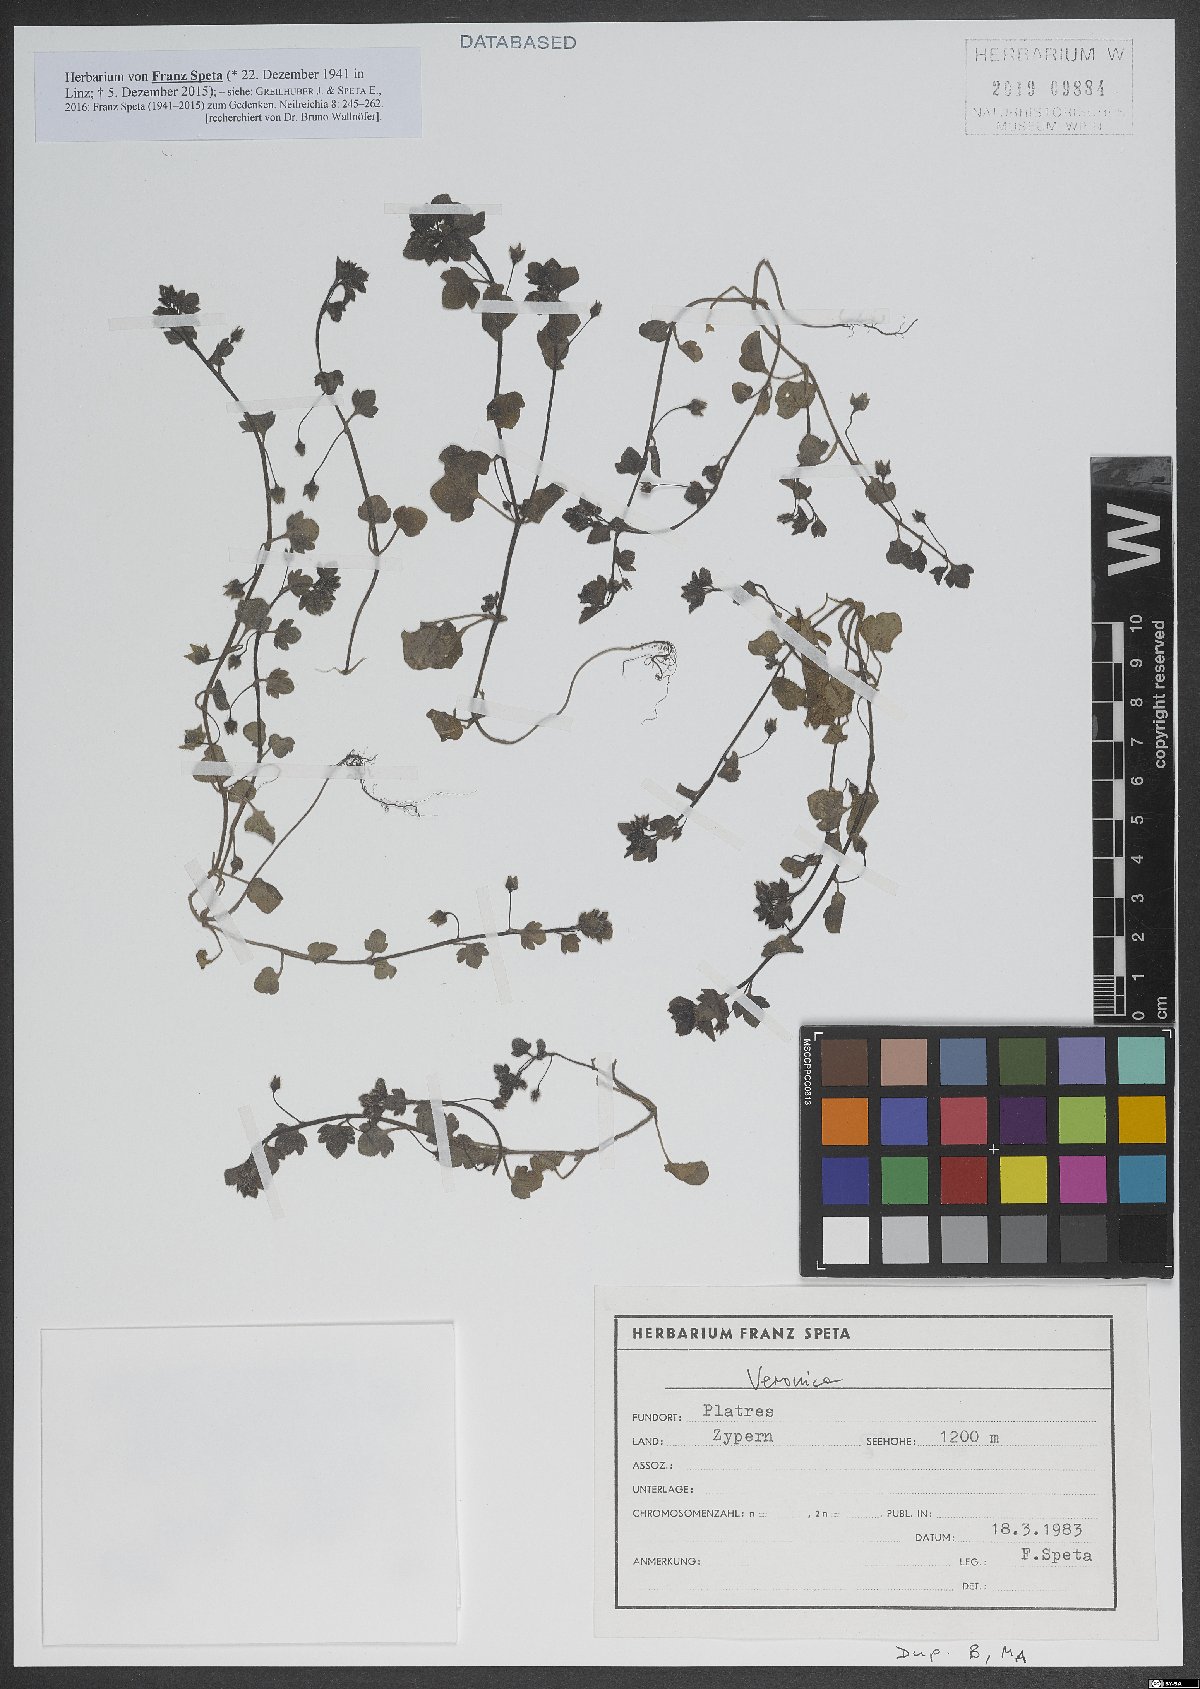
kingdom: Plantae
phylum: Tracheophyta
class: Magnoliopsida
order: Lamiales
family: Plantaginaceae
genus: Veronica
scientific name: Veronica
